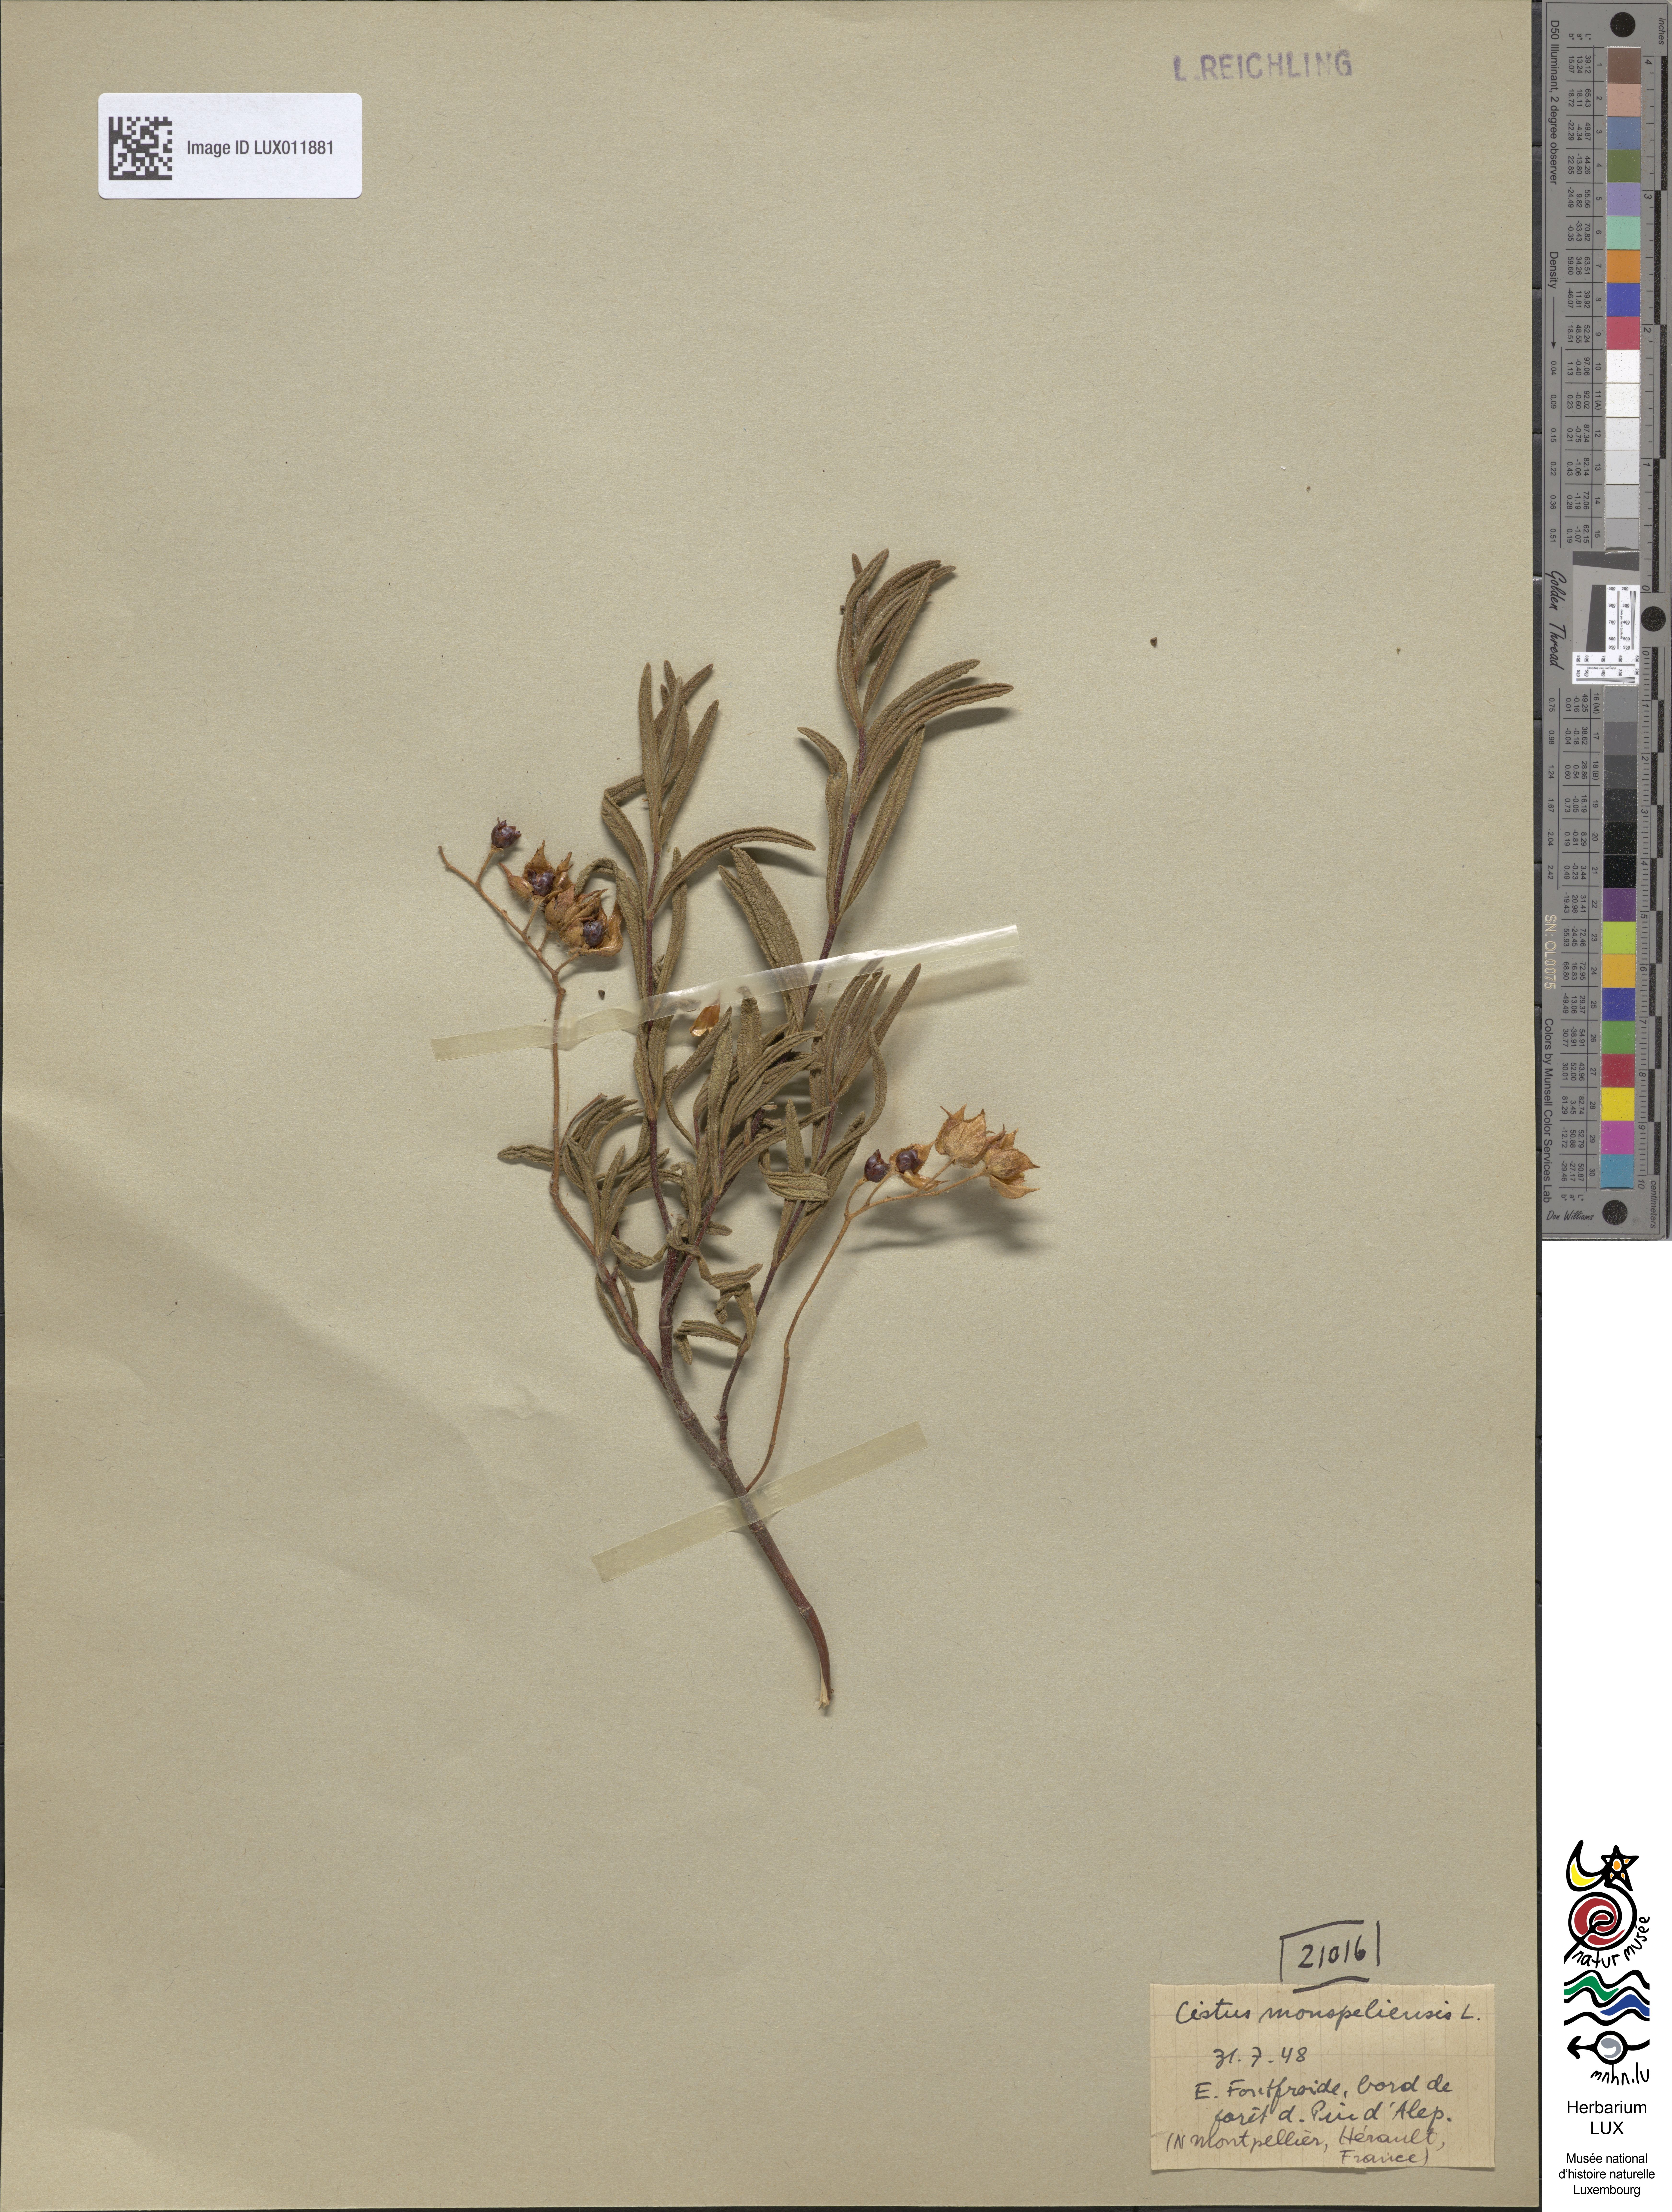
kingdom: Plantae
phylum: Tracheophyta
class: Magnoliopsida
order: Malvales
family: Cistaceae
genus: Cistus
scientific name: Cistus monspeliensis
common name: Montpelier cistus
